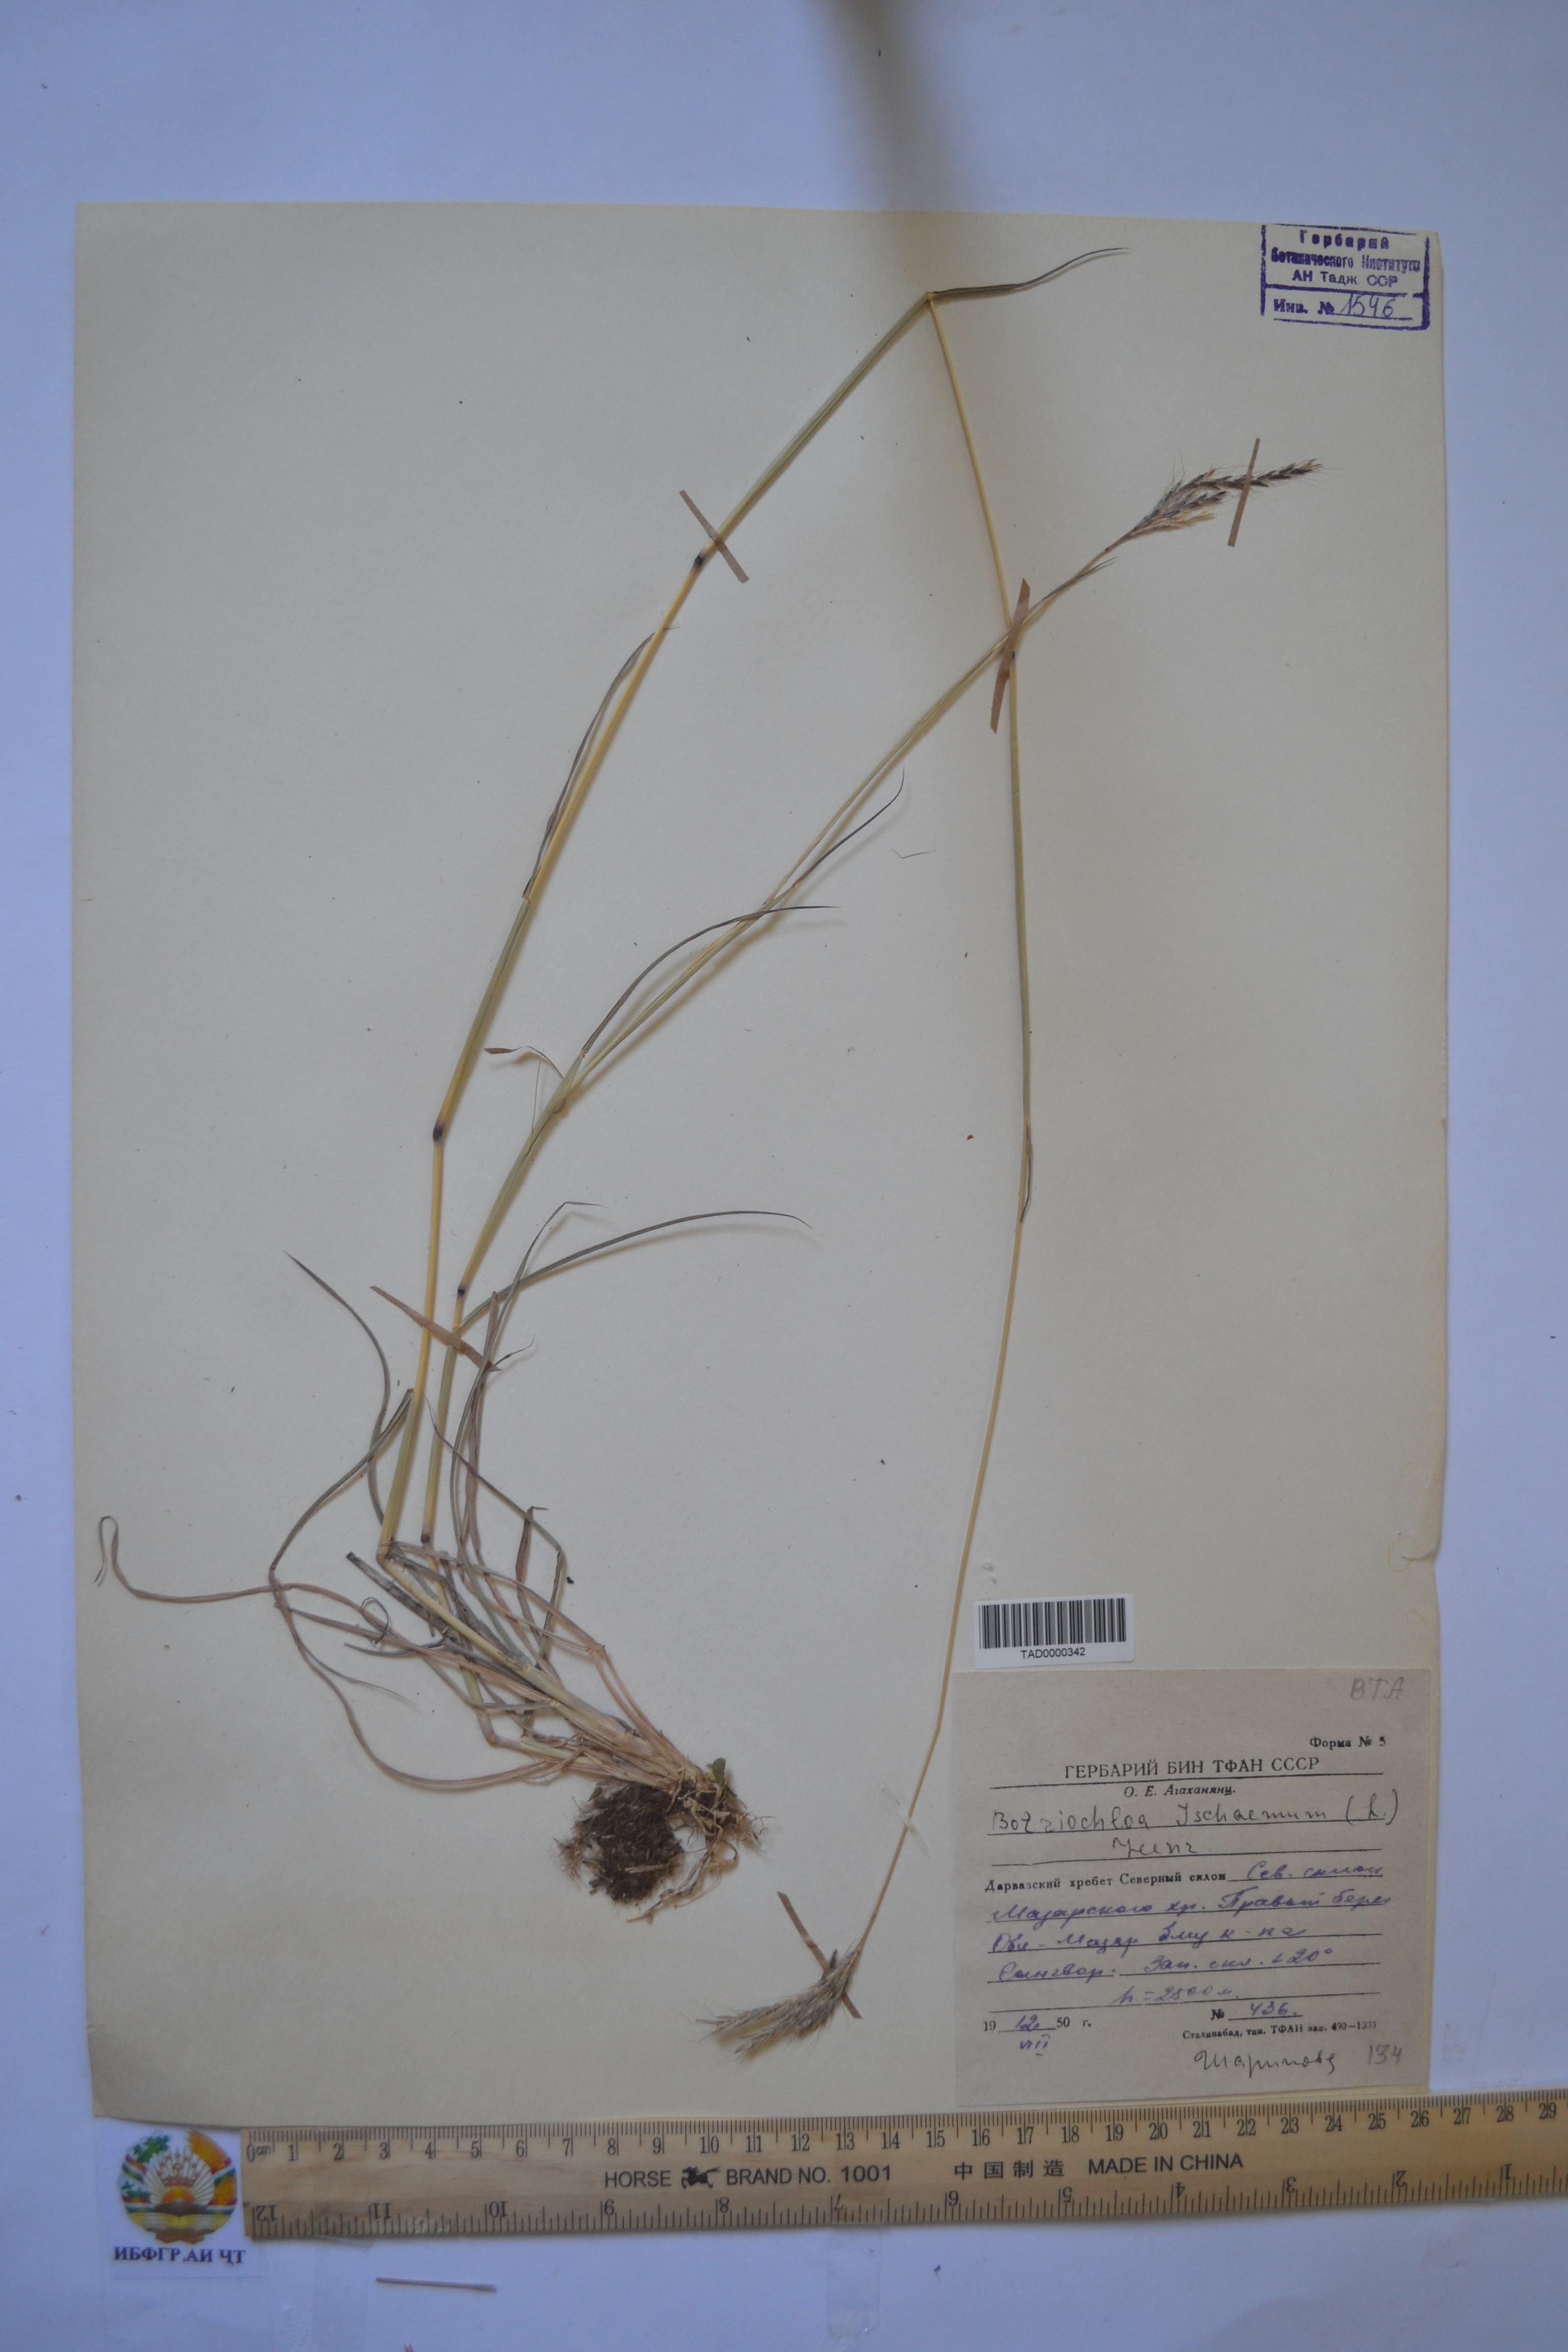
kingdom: Plantae
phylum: Tracheophyta
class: Liliopsida
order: Poales
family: Poaceae
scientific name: Poaceae
